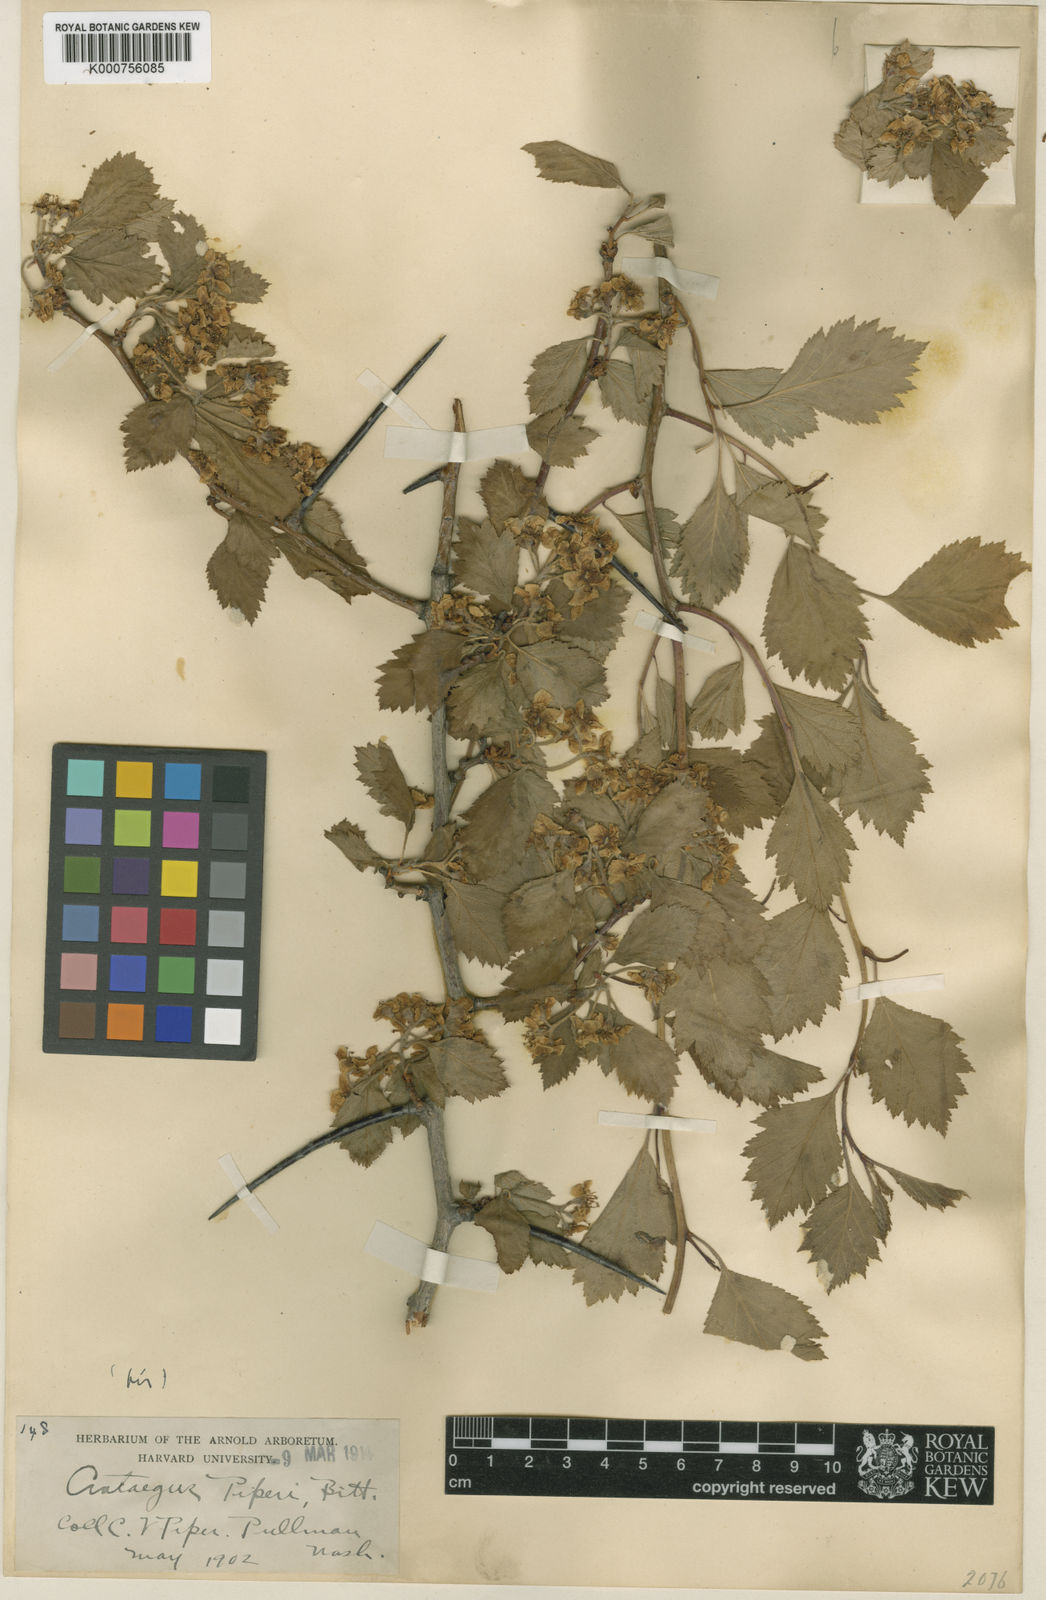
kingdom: Plantae
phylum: Tracheophyta
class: Magnoliopsida
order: Rosales
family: Rosaceae
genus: Crataegus
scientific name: Crataegus piperi
